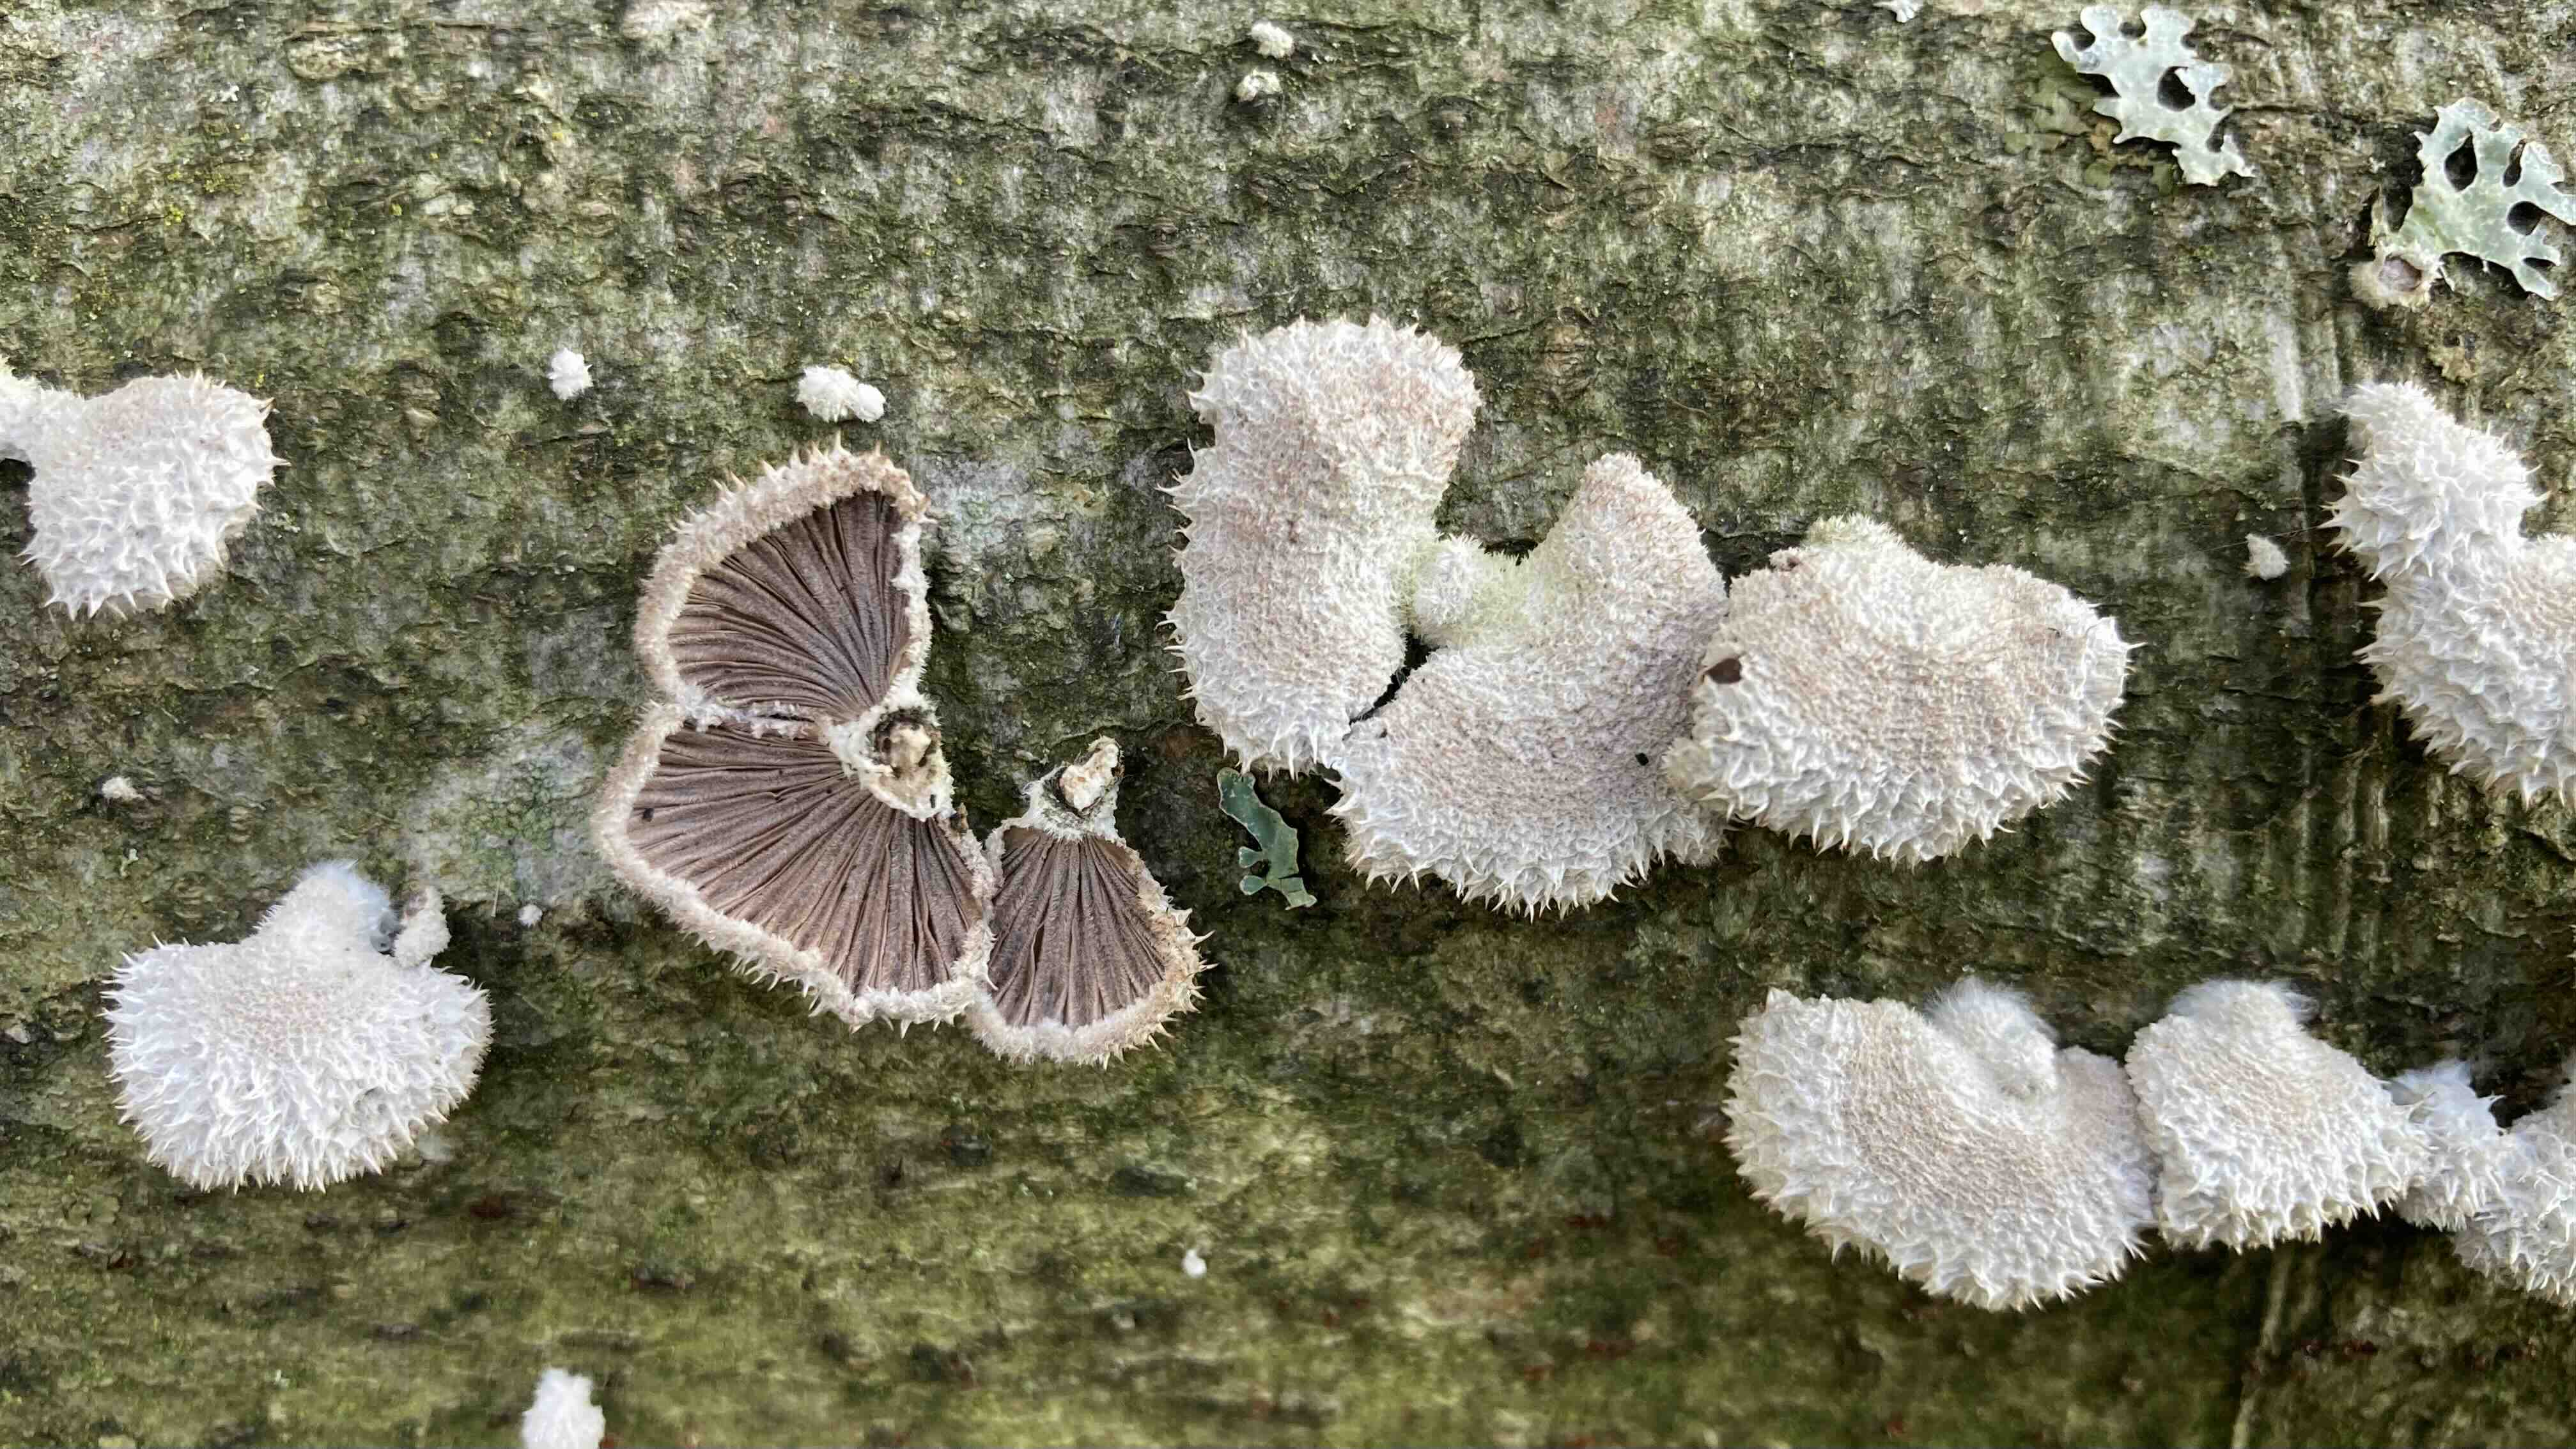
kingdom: Fungi
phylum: Basidiomycota
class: Agaricomycetes
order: Agaricales
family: Schizophyllaceae
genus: Schizophyllum
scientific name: Schizophyllum commune
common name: kløvblad
